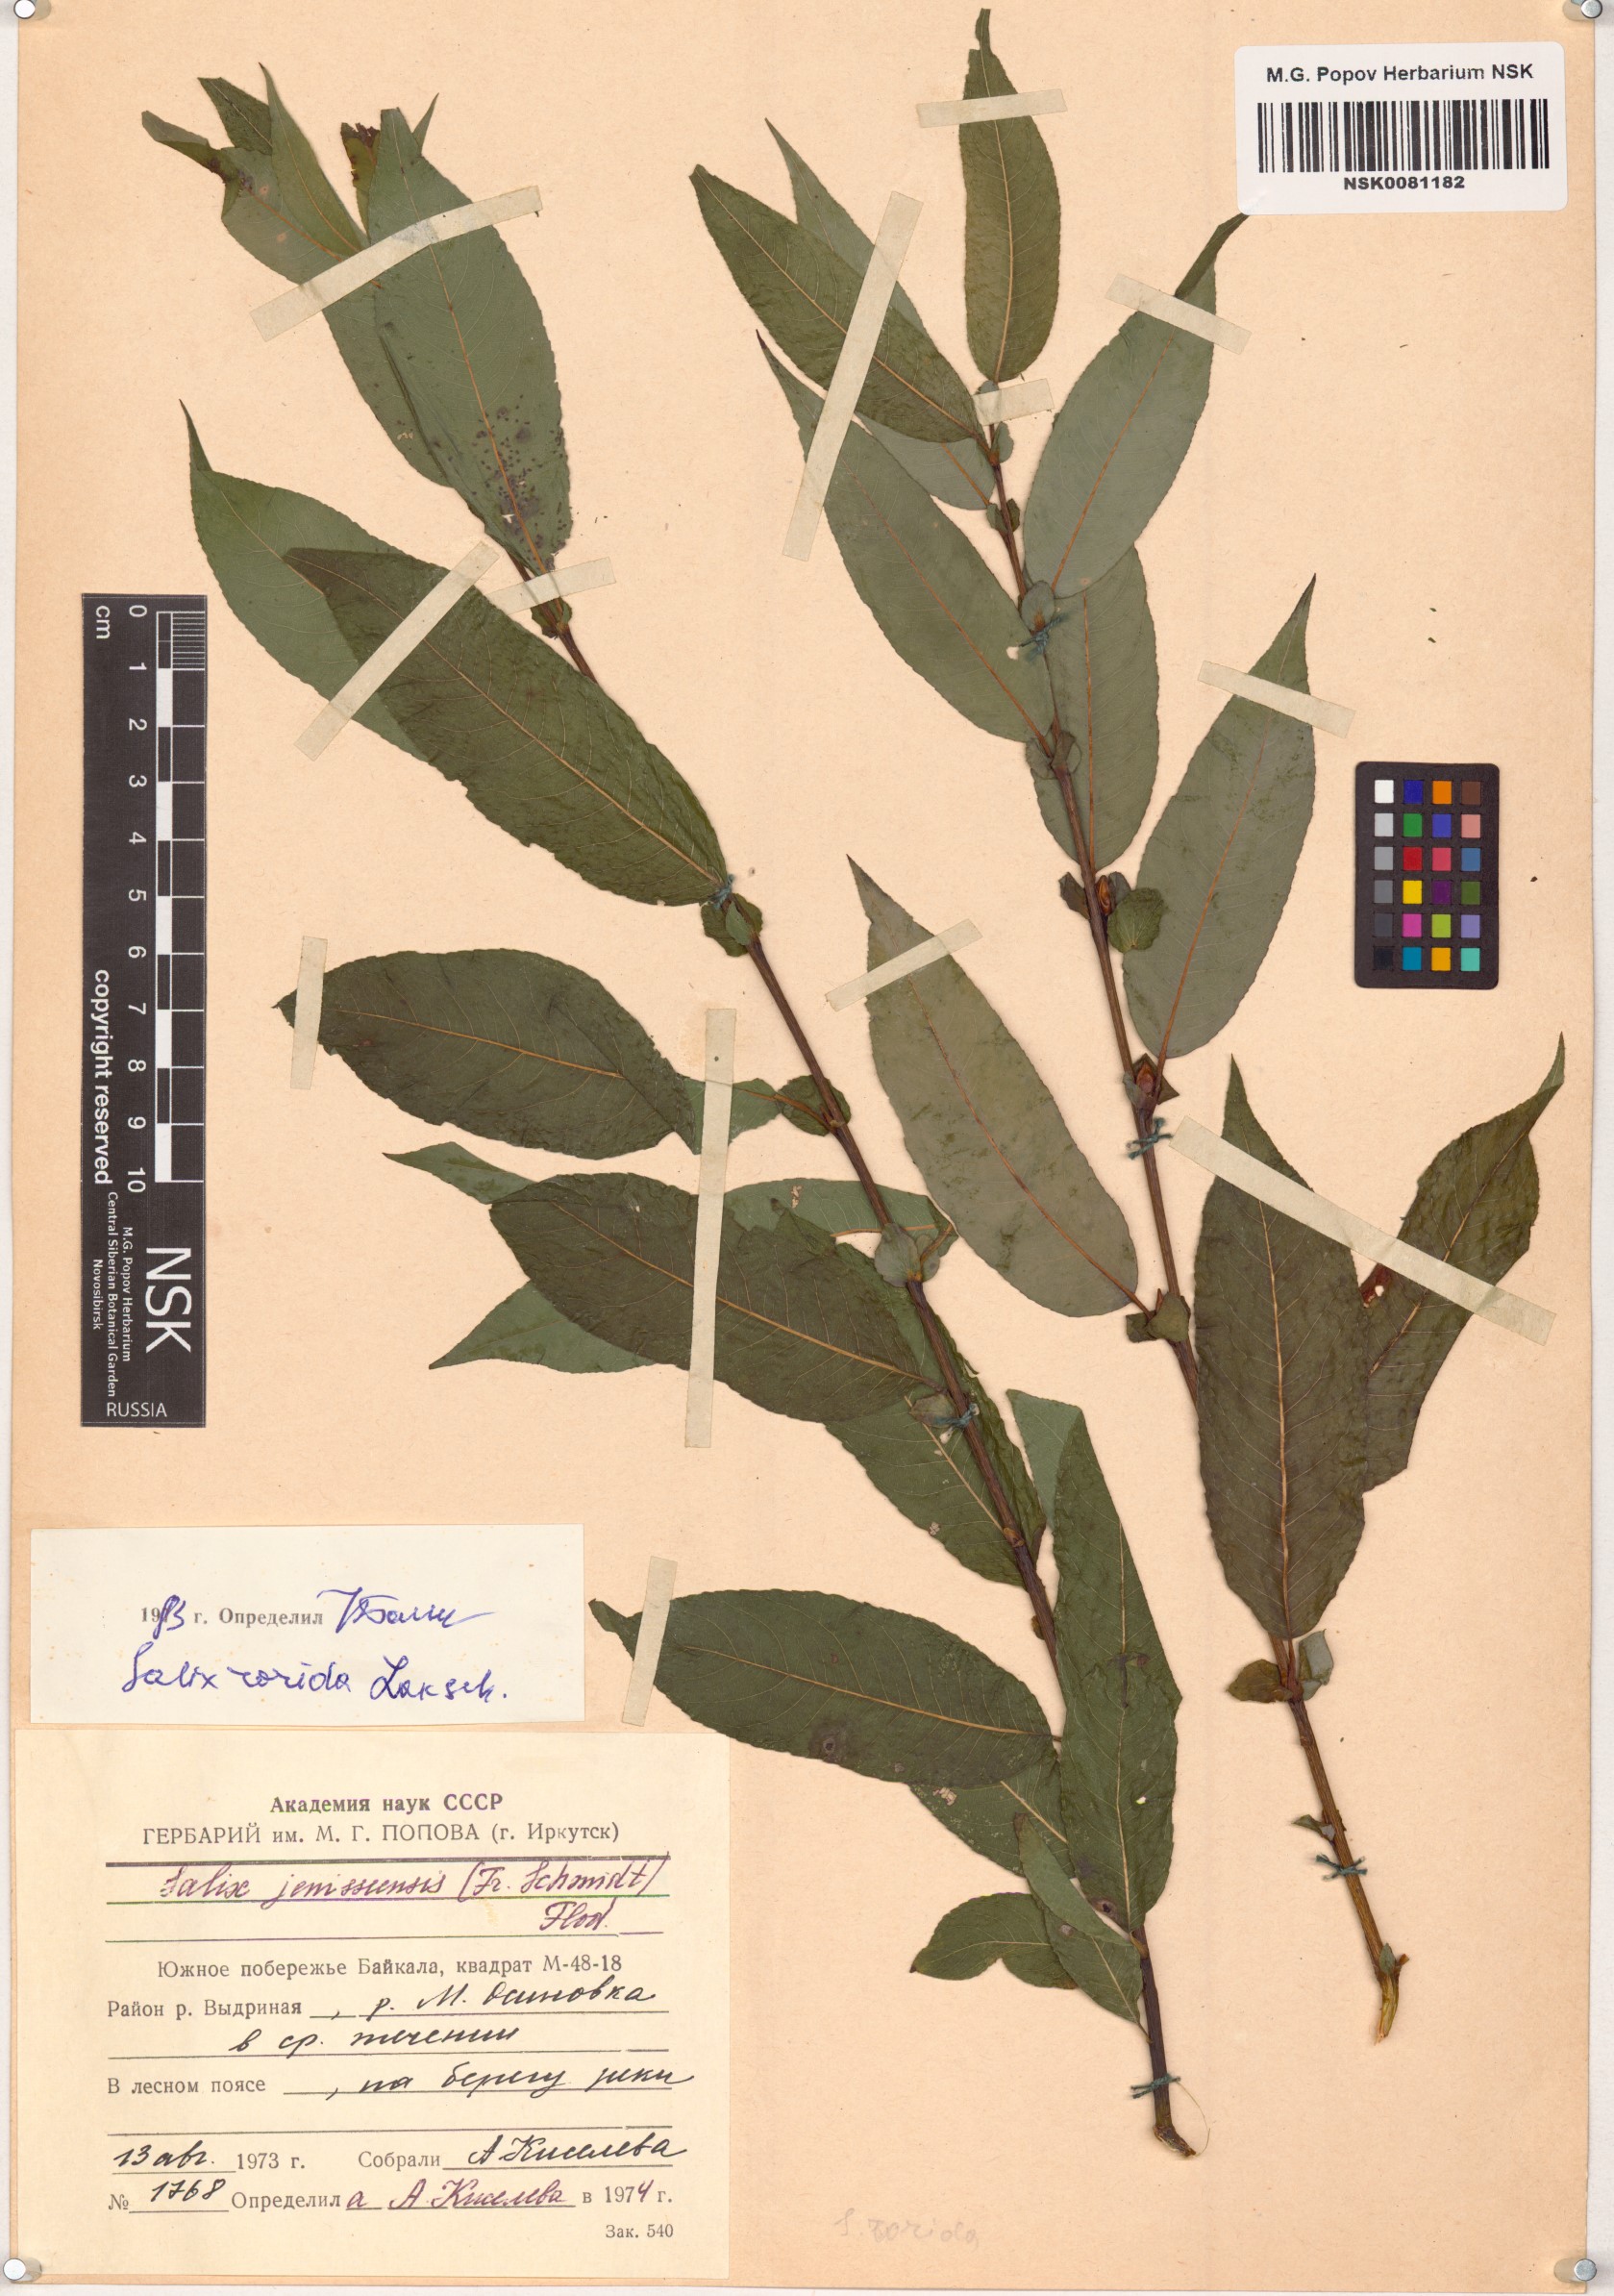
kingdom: Plantae
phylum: Tracheophyta
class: Magnoliopsida
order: Malpighiales
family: Salicaceae
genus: Salix
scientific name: Salix rorida
